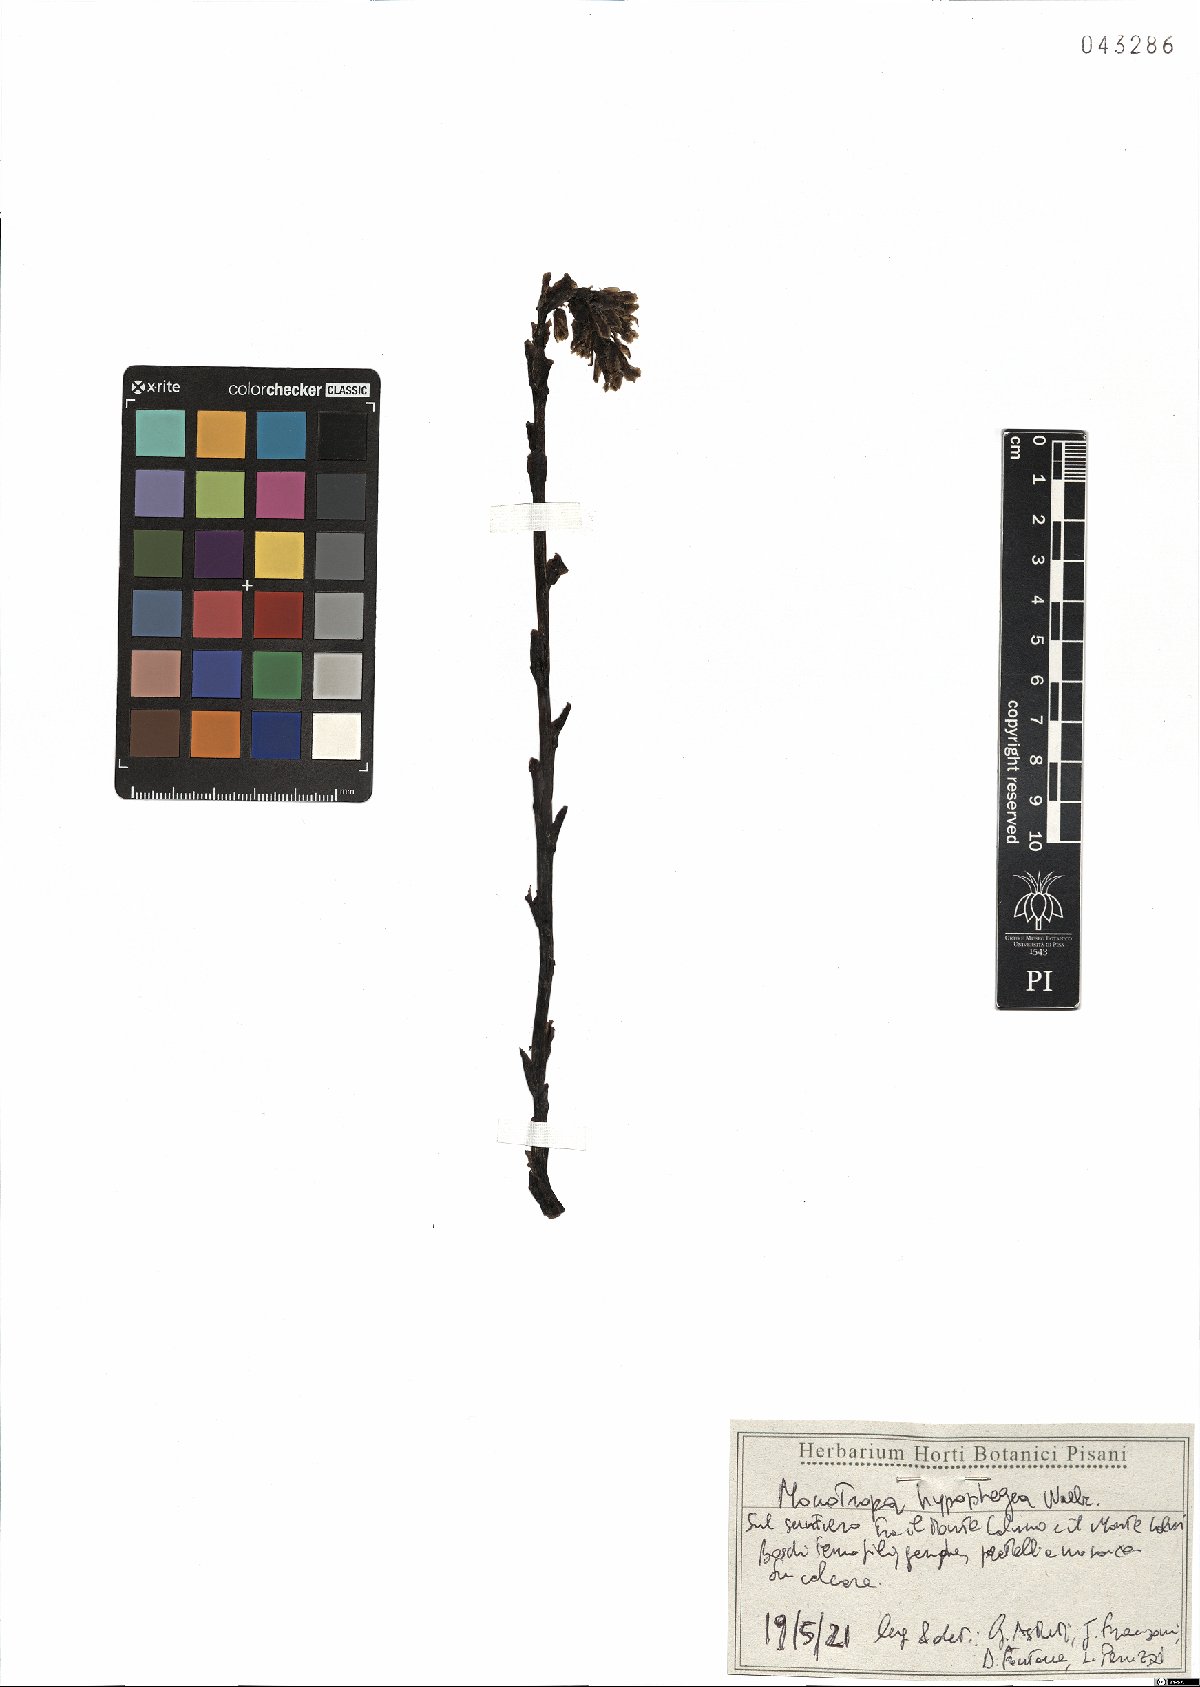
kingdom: Plantae
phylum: Tracheophyta
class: Magnoliopsida
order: Ericales
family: Ericaceae
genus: Hypopitys
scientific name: Hypopitys hypophegea
